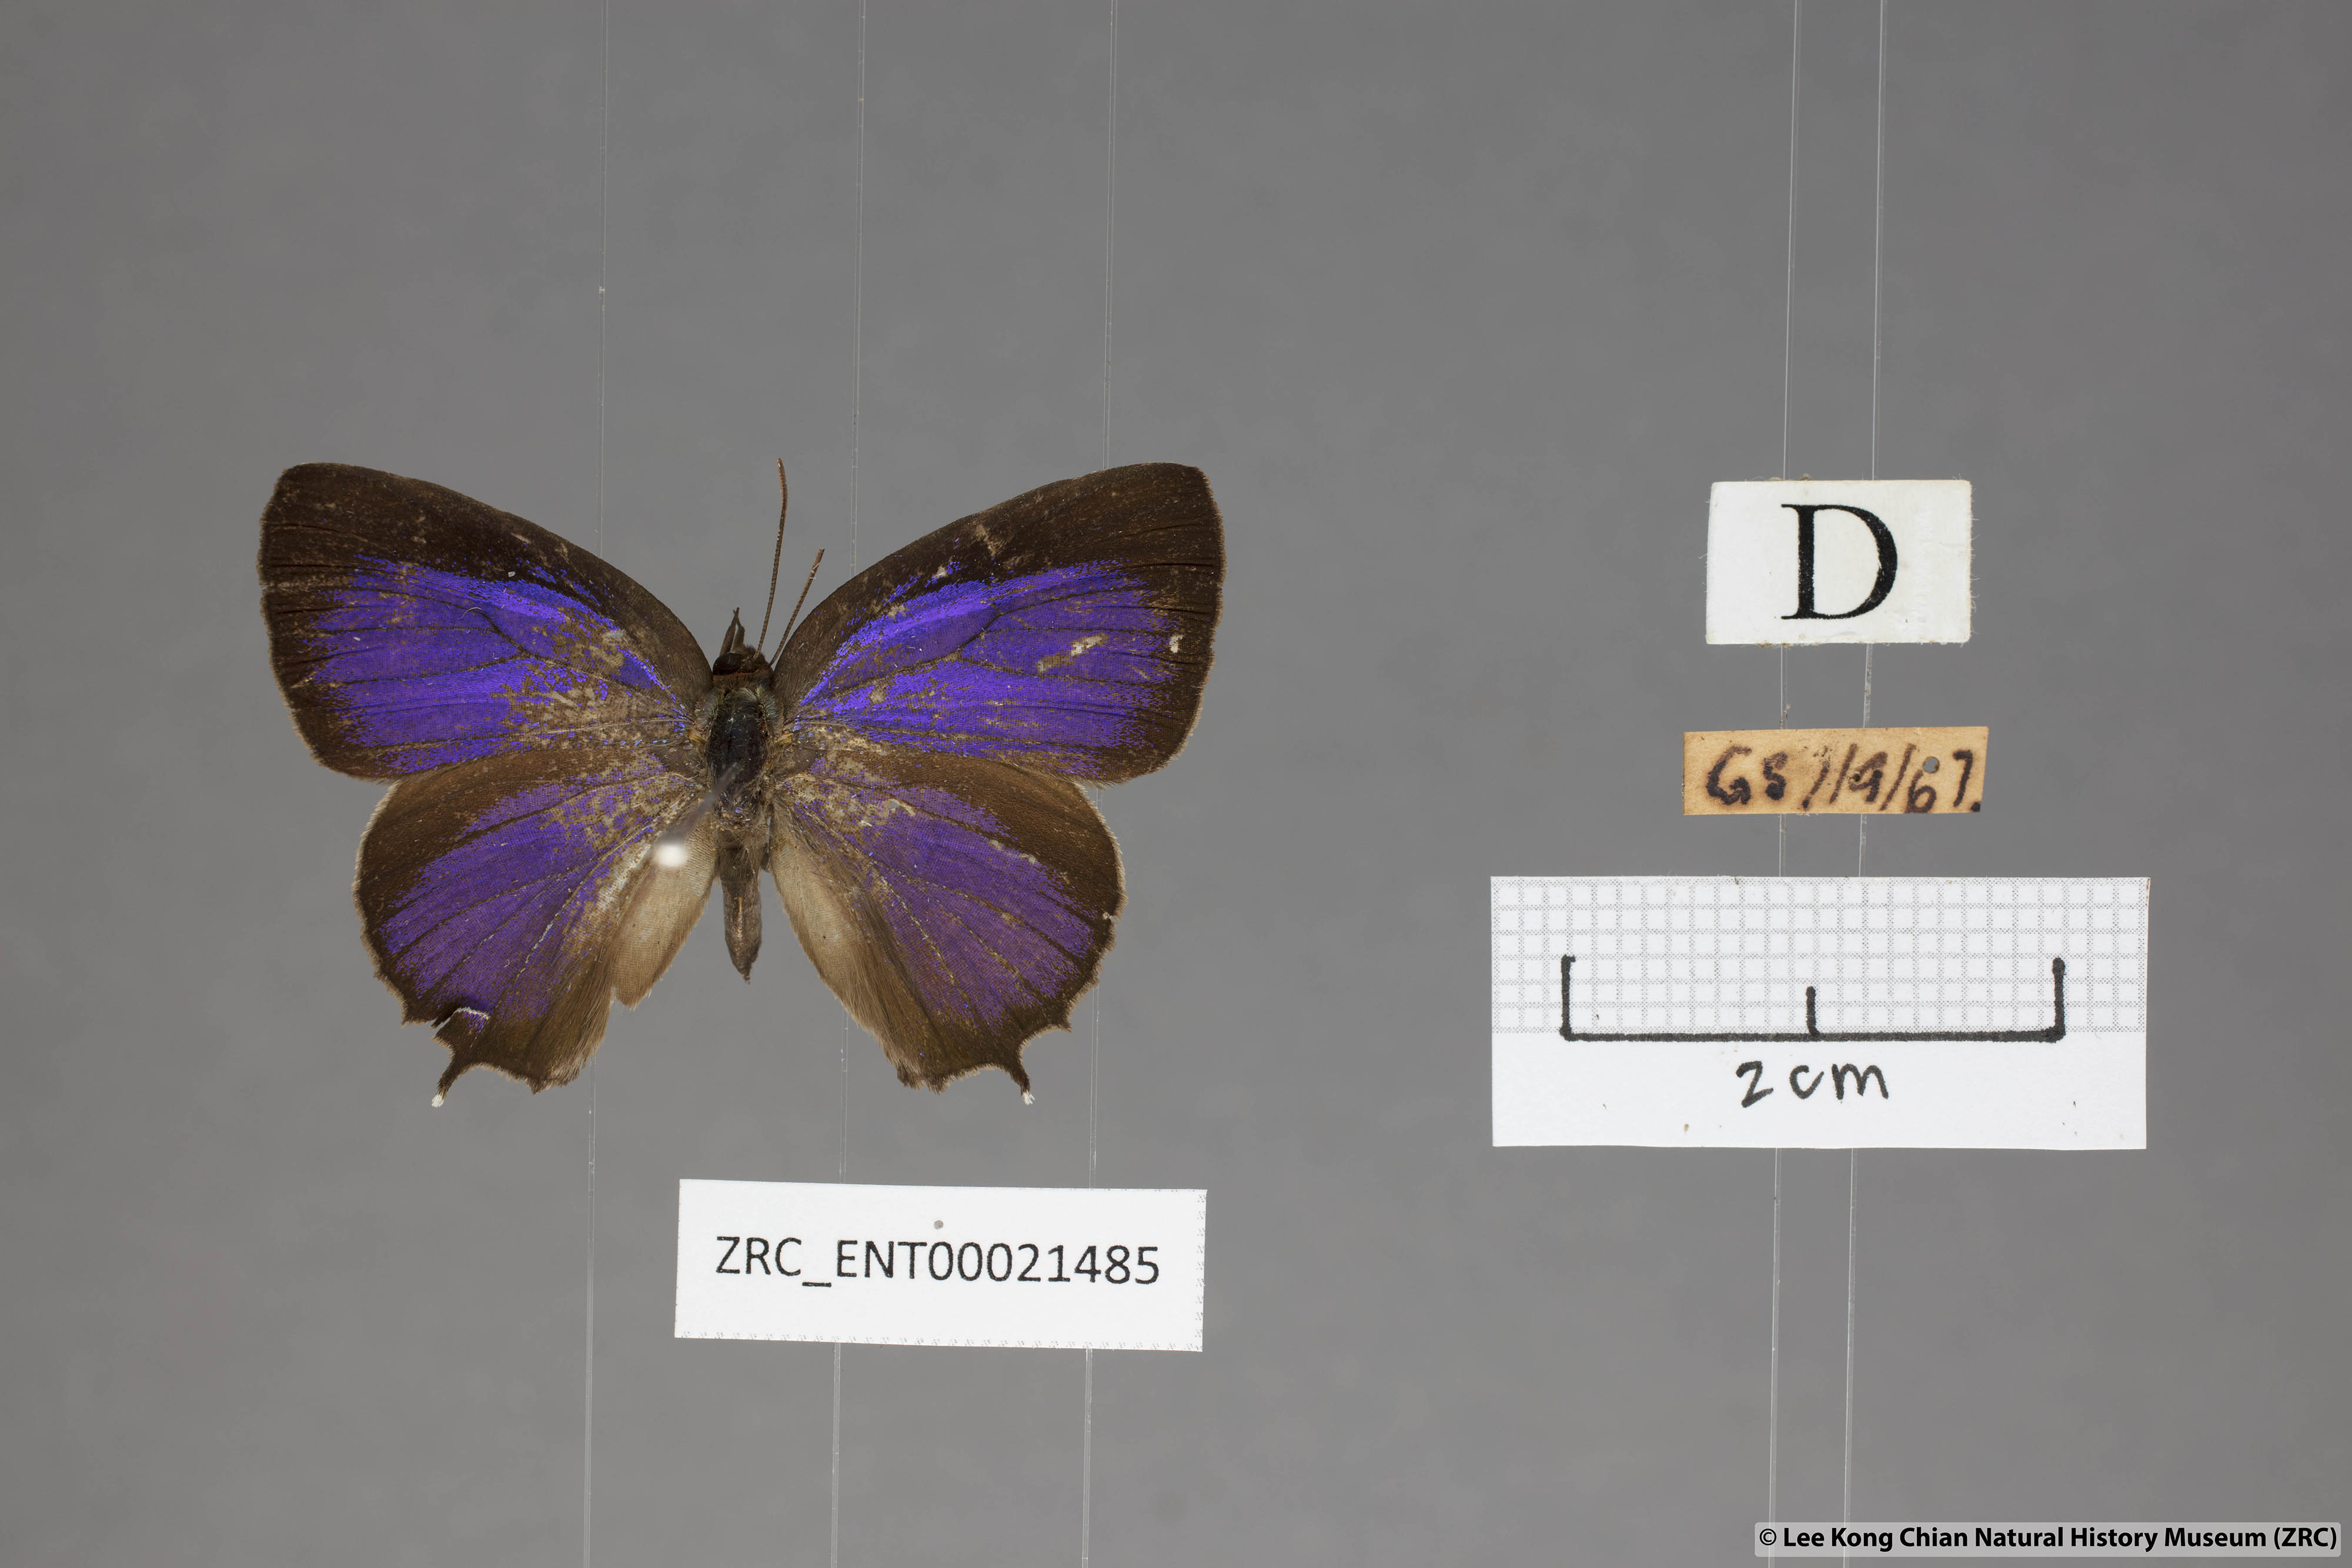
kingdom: Animalia
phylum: Arthropoda
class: Insecta
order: Lepidoptera
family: Lycaenidae
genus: Flos
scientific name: Flos
